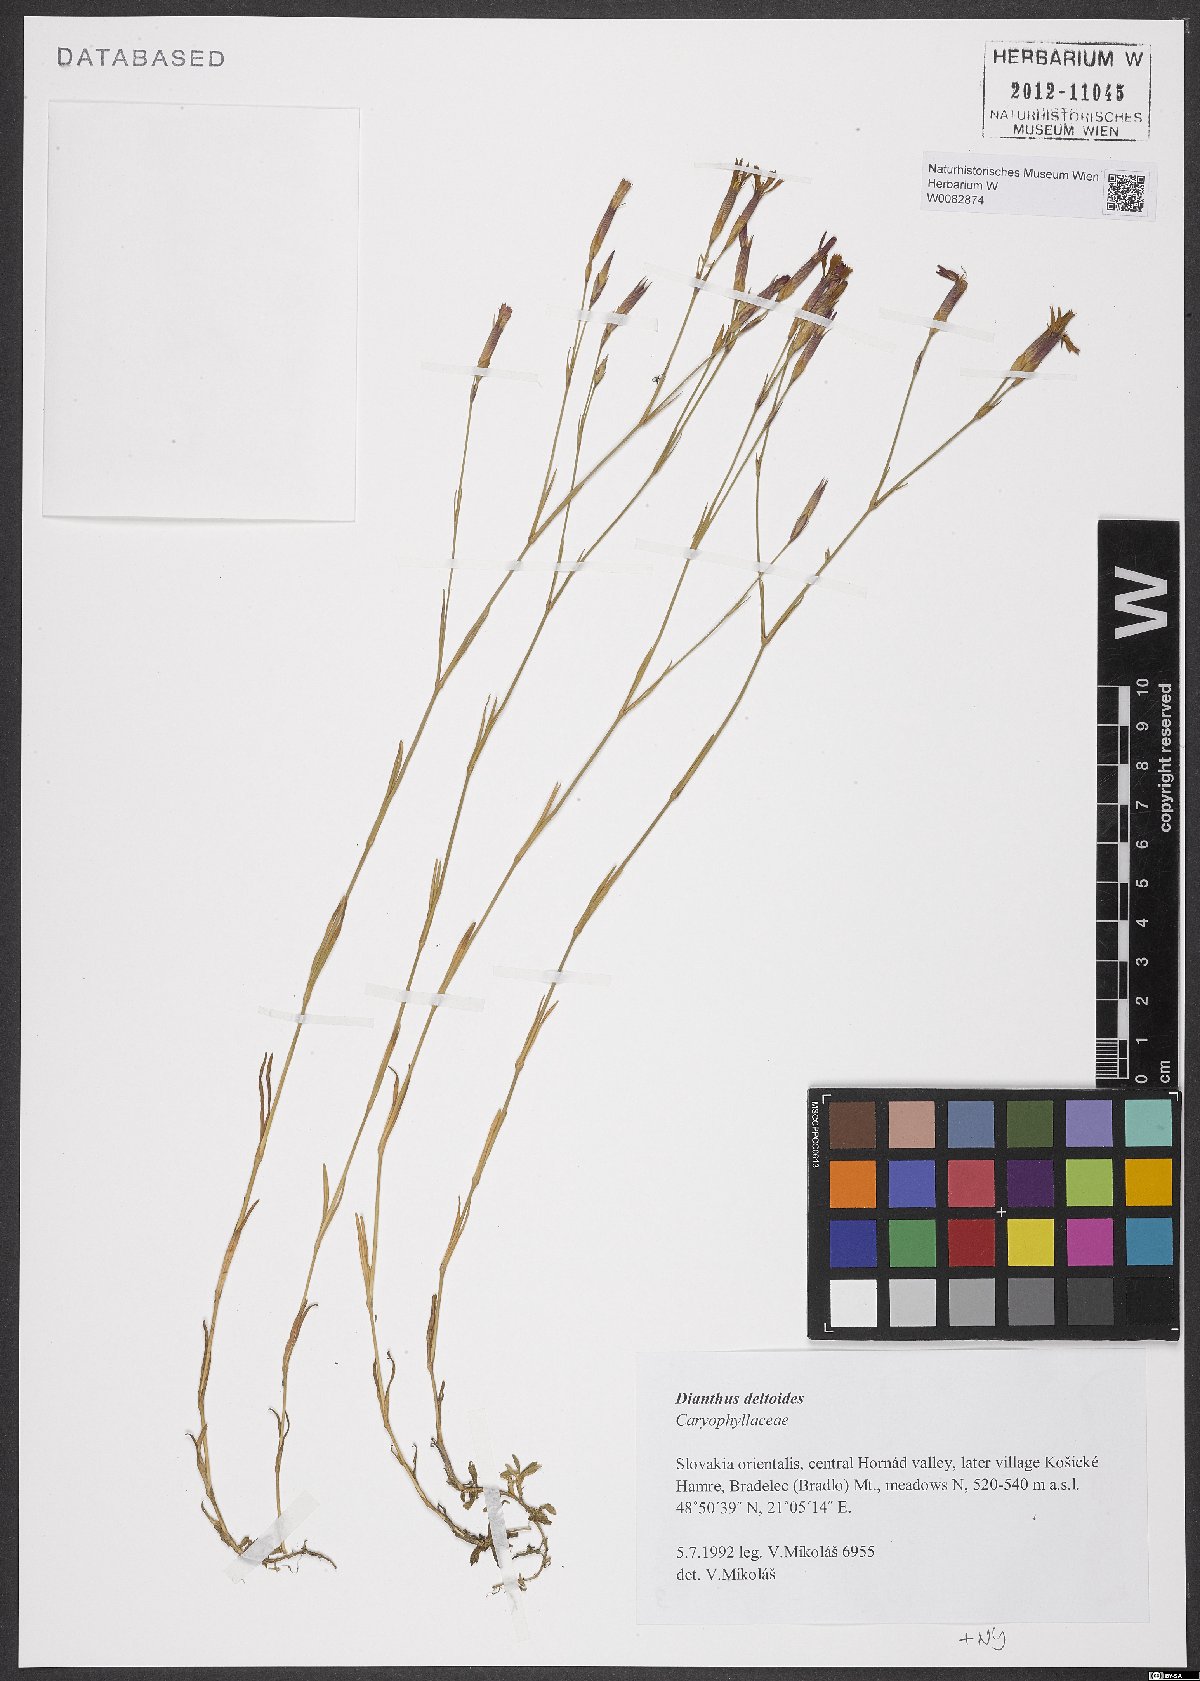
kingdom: Plantae
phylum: Tracheophyta
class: Magnoliopsida
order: Caryophyllales
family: Caryophyllaceae
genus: Dianthus
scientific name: Dianthus deltoides
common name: Maiden pink
